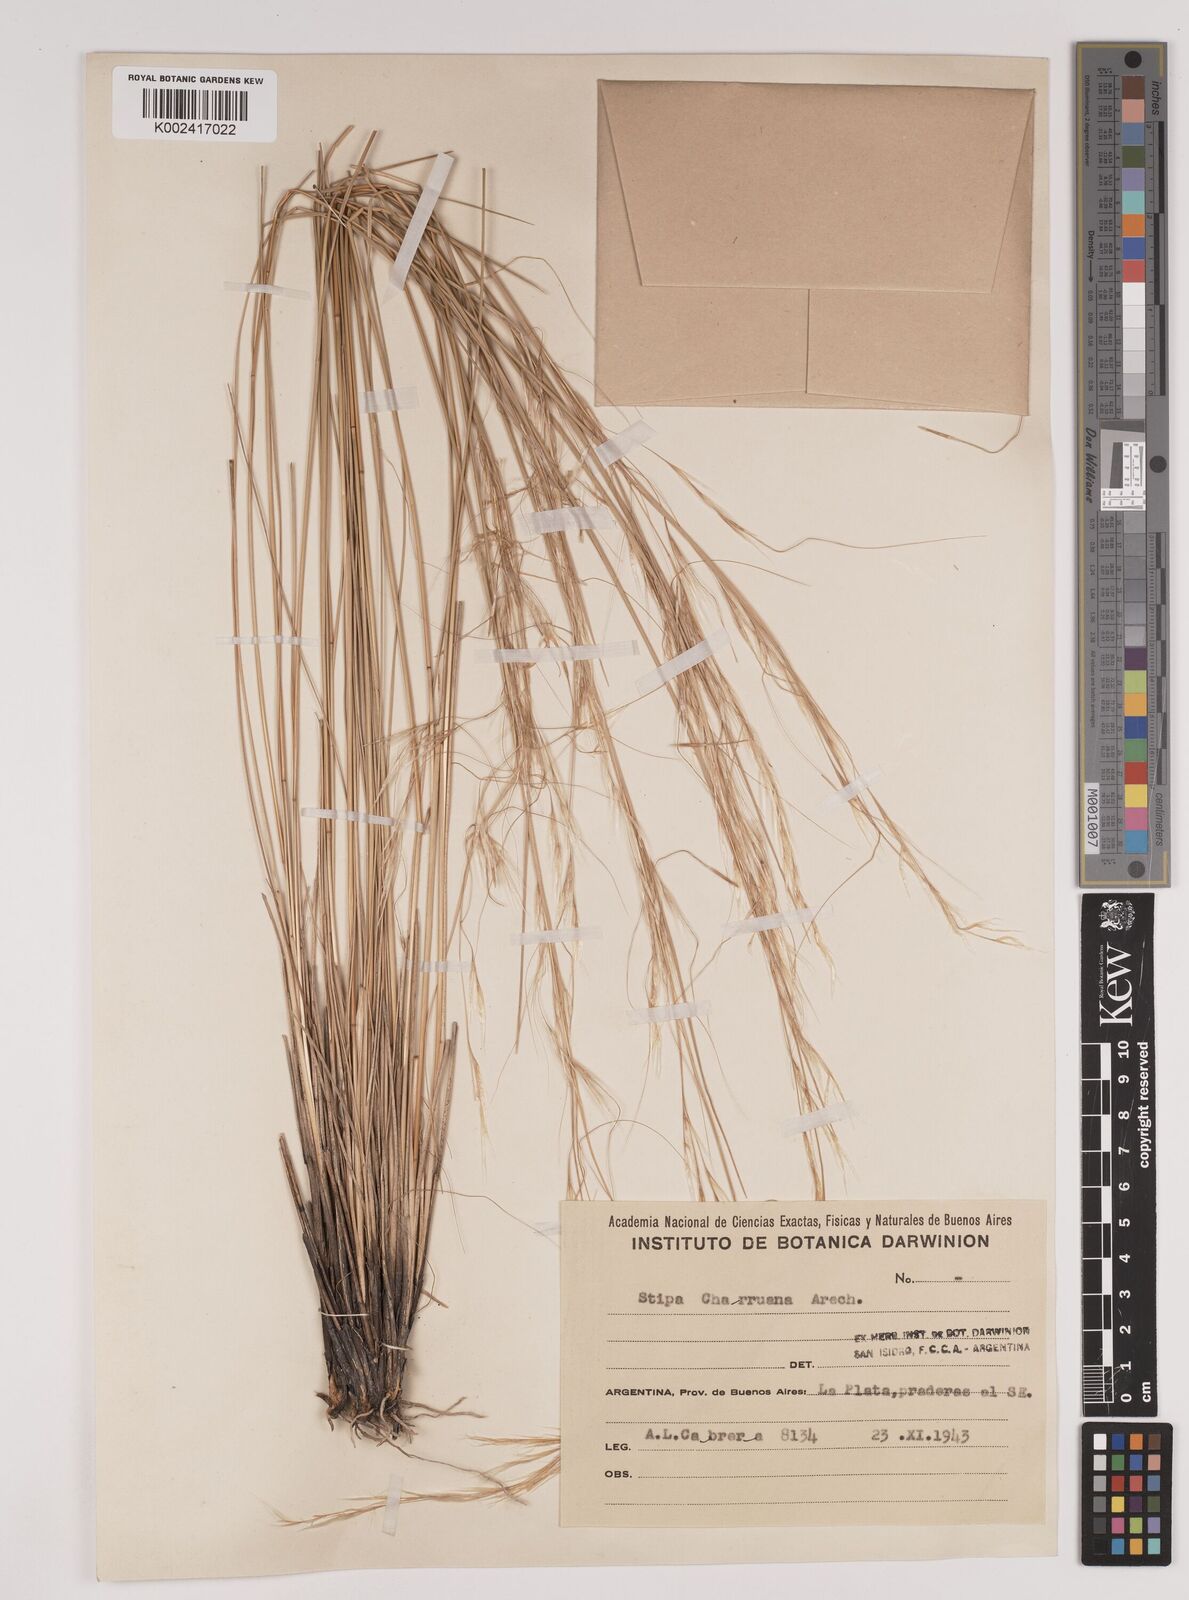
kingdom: Plantae
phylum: Tracheophyta
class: Liliopsida
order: Poales
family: Poaceae
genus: Stipa
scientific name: Stipa neaei
